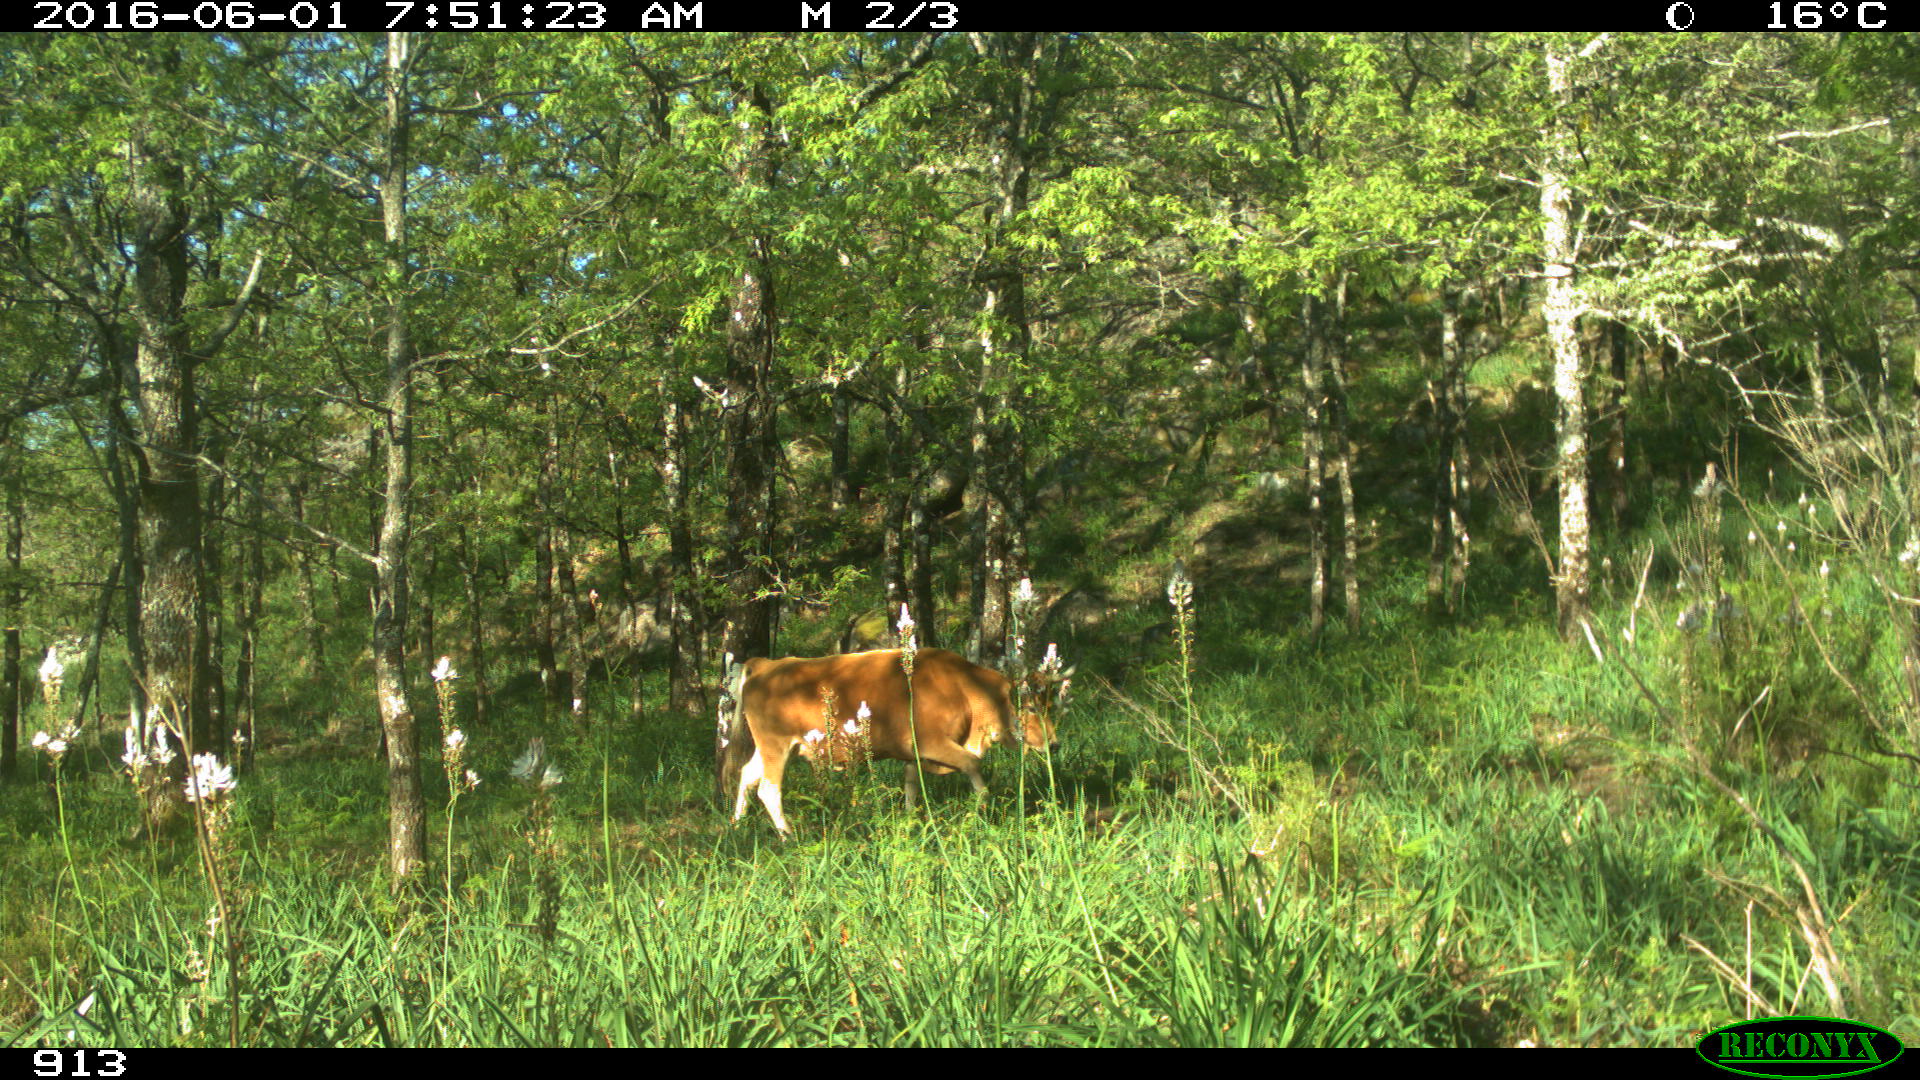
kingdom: Animalia
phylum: Chordata
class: Mammalia
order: Artiodactyla
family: Bovidae
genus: Bos
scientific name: Bos taurus
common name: Domesticated cattle
